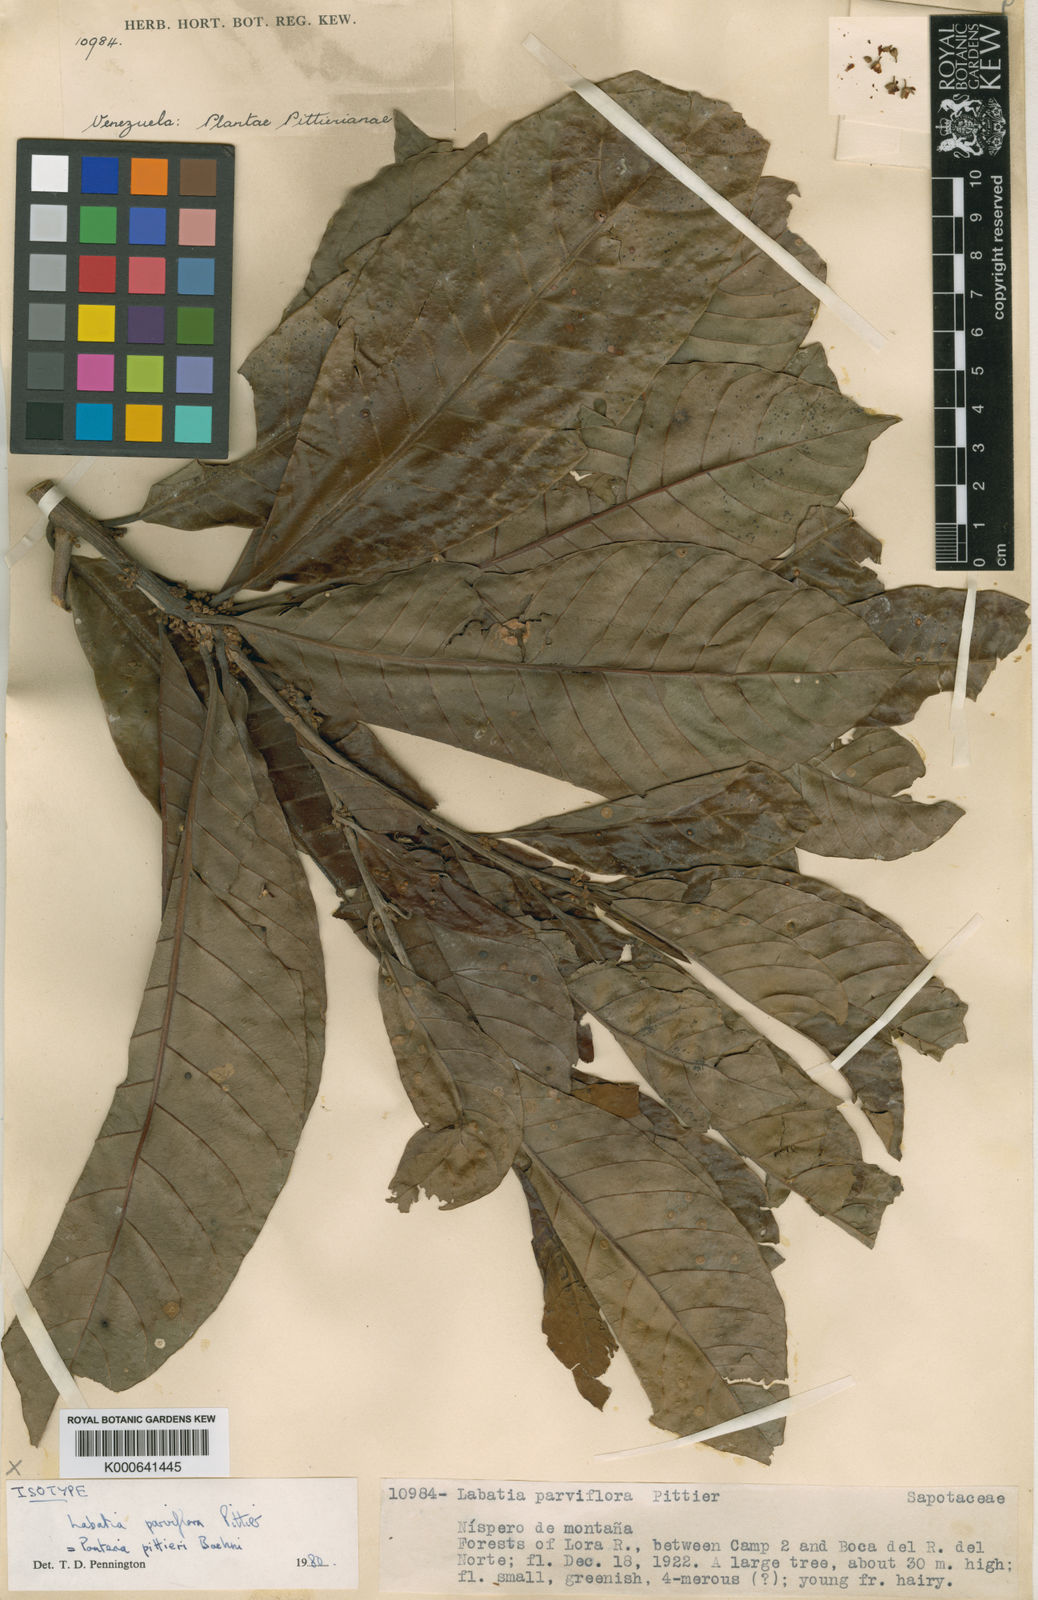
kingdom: Plantae
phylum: Tracheophyta
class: Magnoliopsida
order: Ericales
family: Sapotaceae
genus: Pouteria
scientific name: Pouteria glomerata
